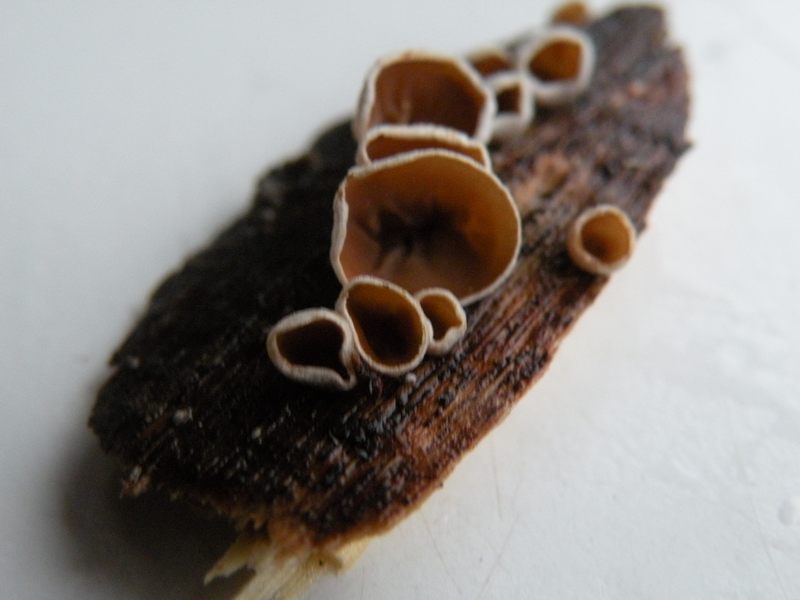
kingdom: Fungi
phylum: Basidiomycota
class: Agaricomycetes
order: Agaricales
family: Schizophyllaceae
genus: Schizophyllum
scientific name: Schizophyllum amplum
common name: poppel-hængeøre
